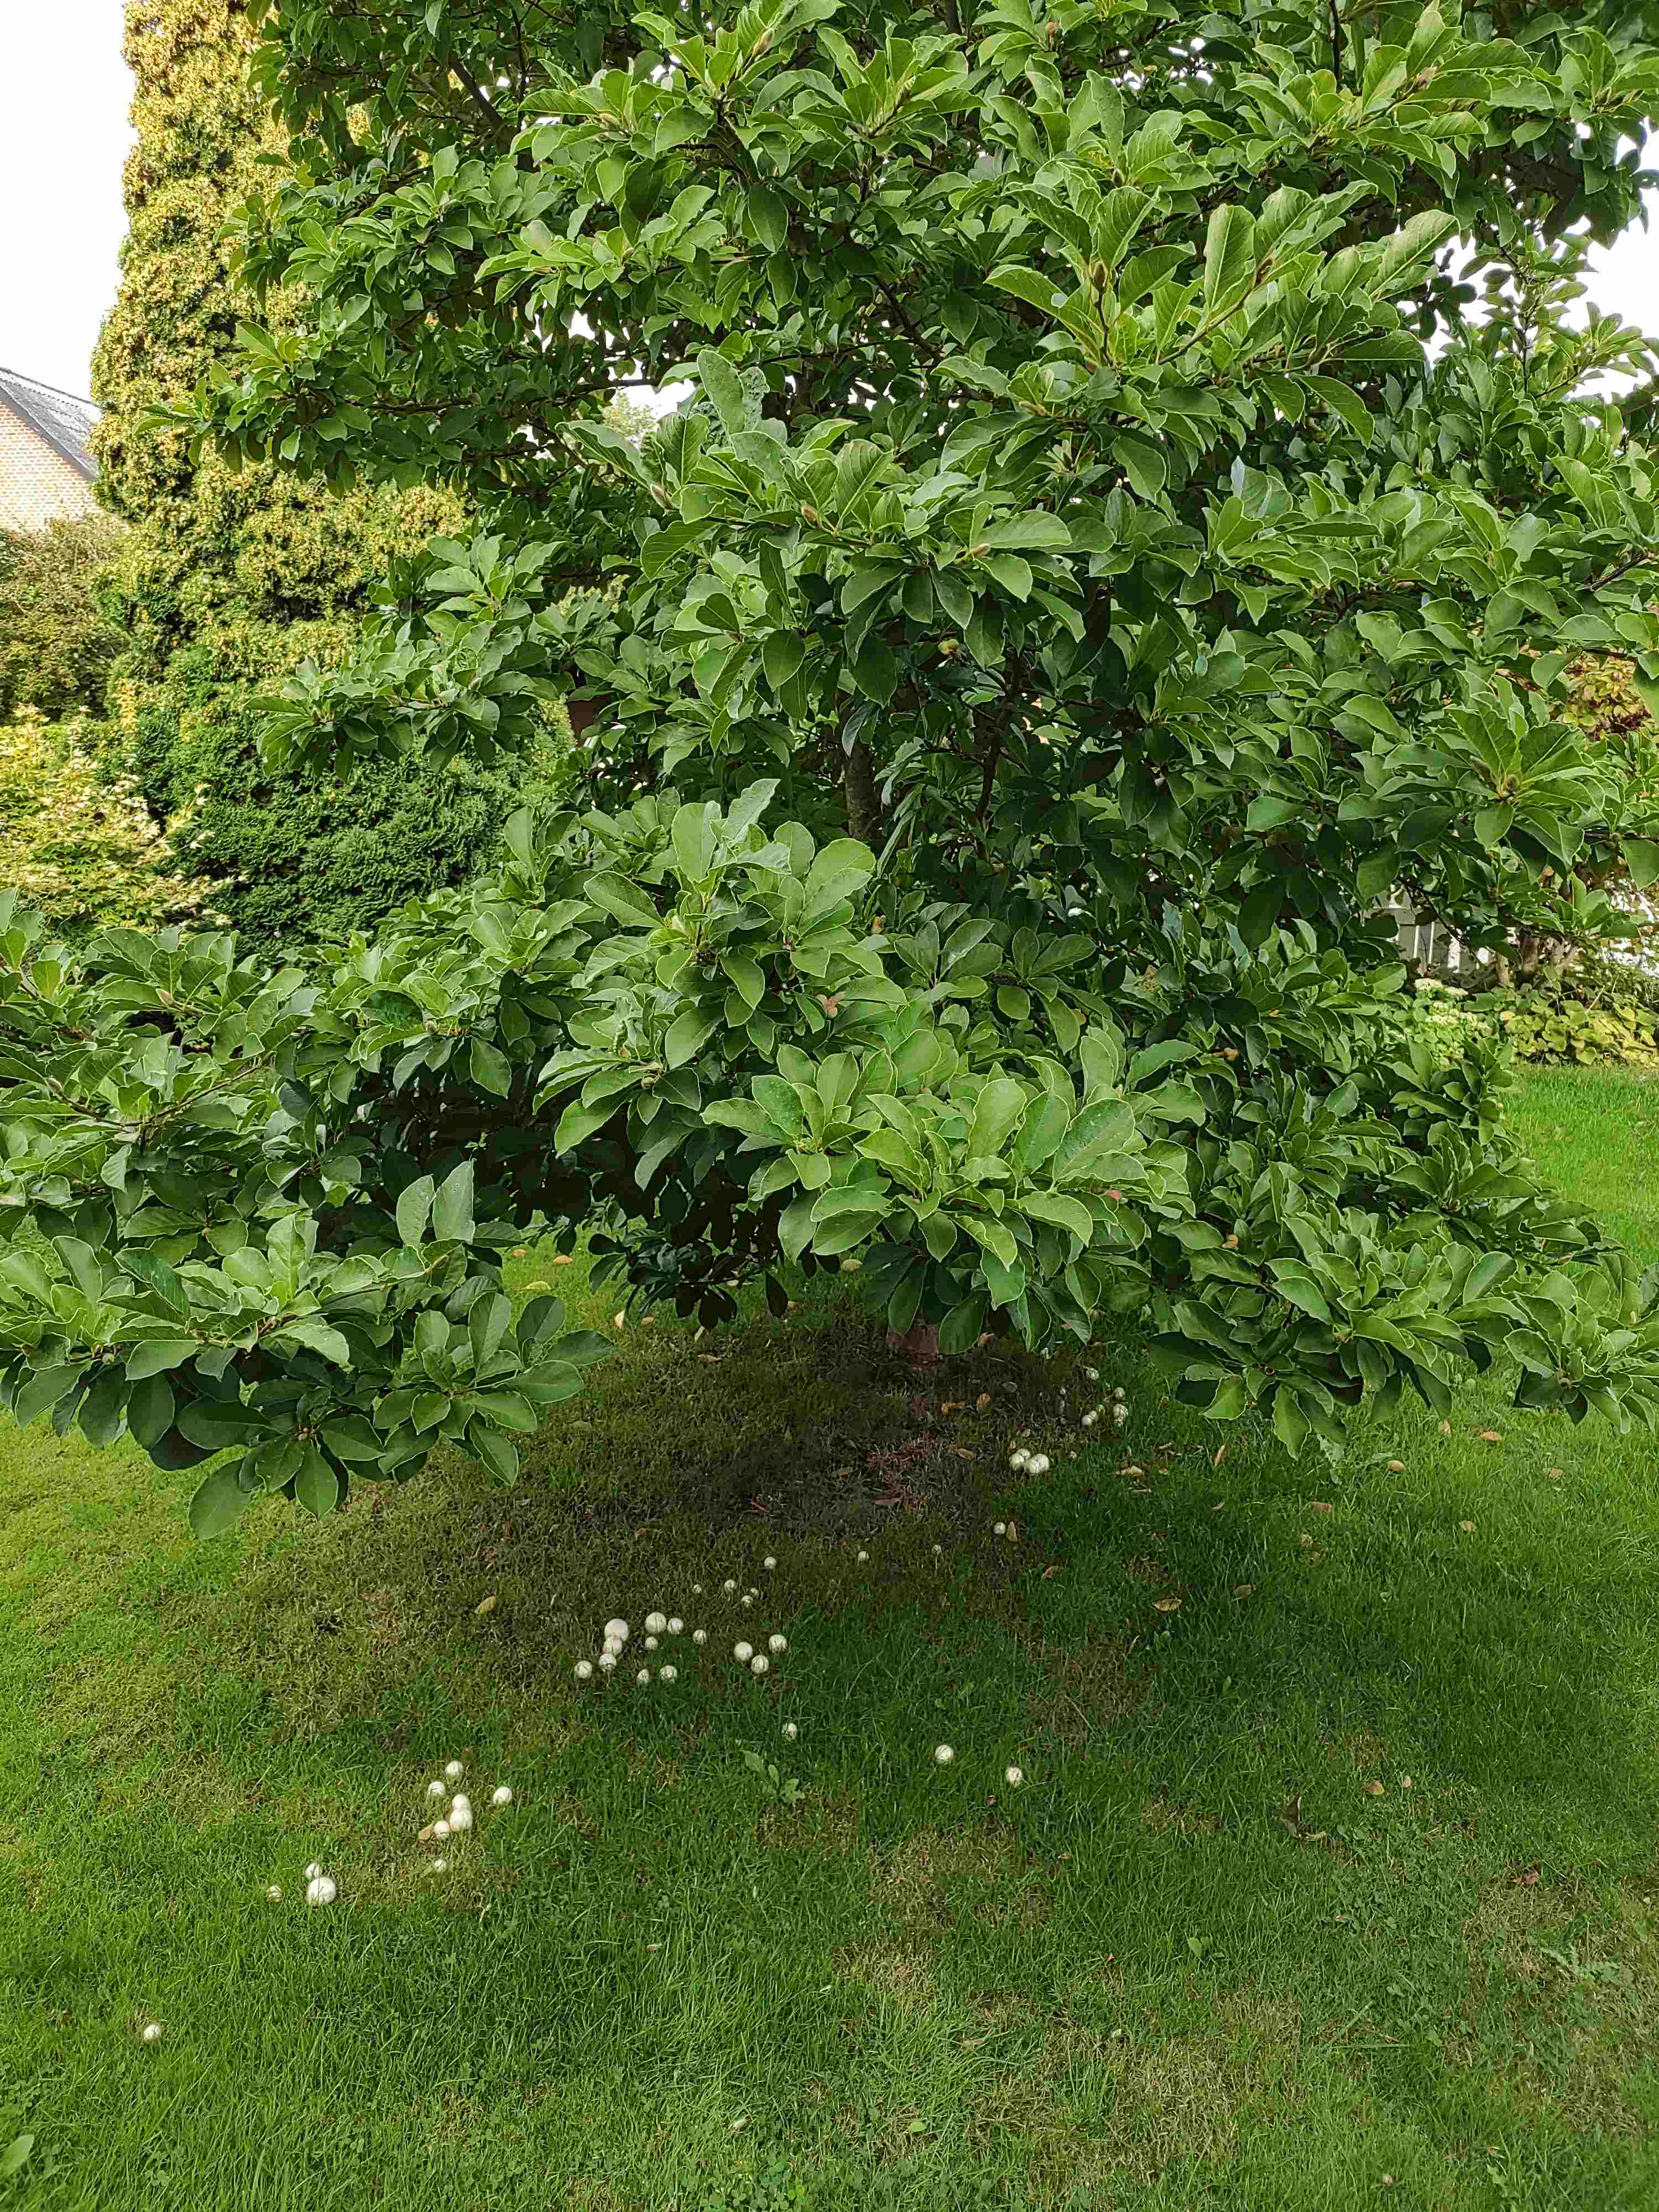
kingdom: Fungi
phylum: Basidiomycota
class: Agaricomycetes
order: Agaricales
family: Agaricaceae
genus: Agaricus
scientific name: Agaricus xanthodermus
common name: karbol-champignon
